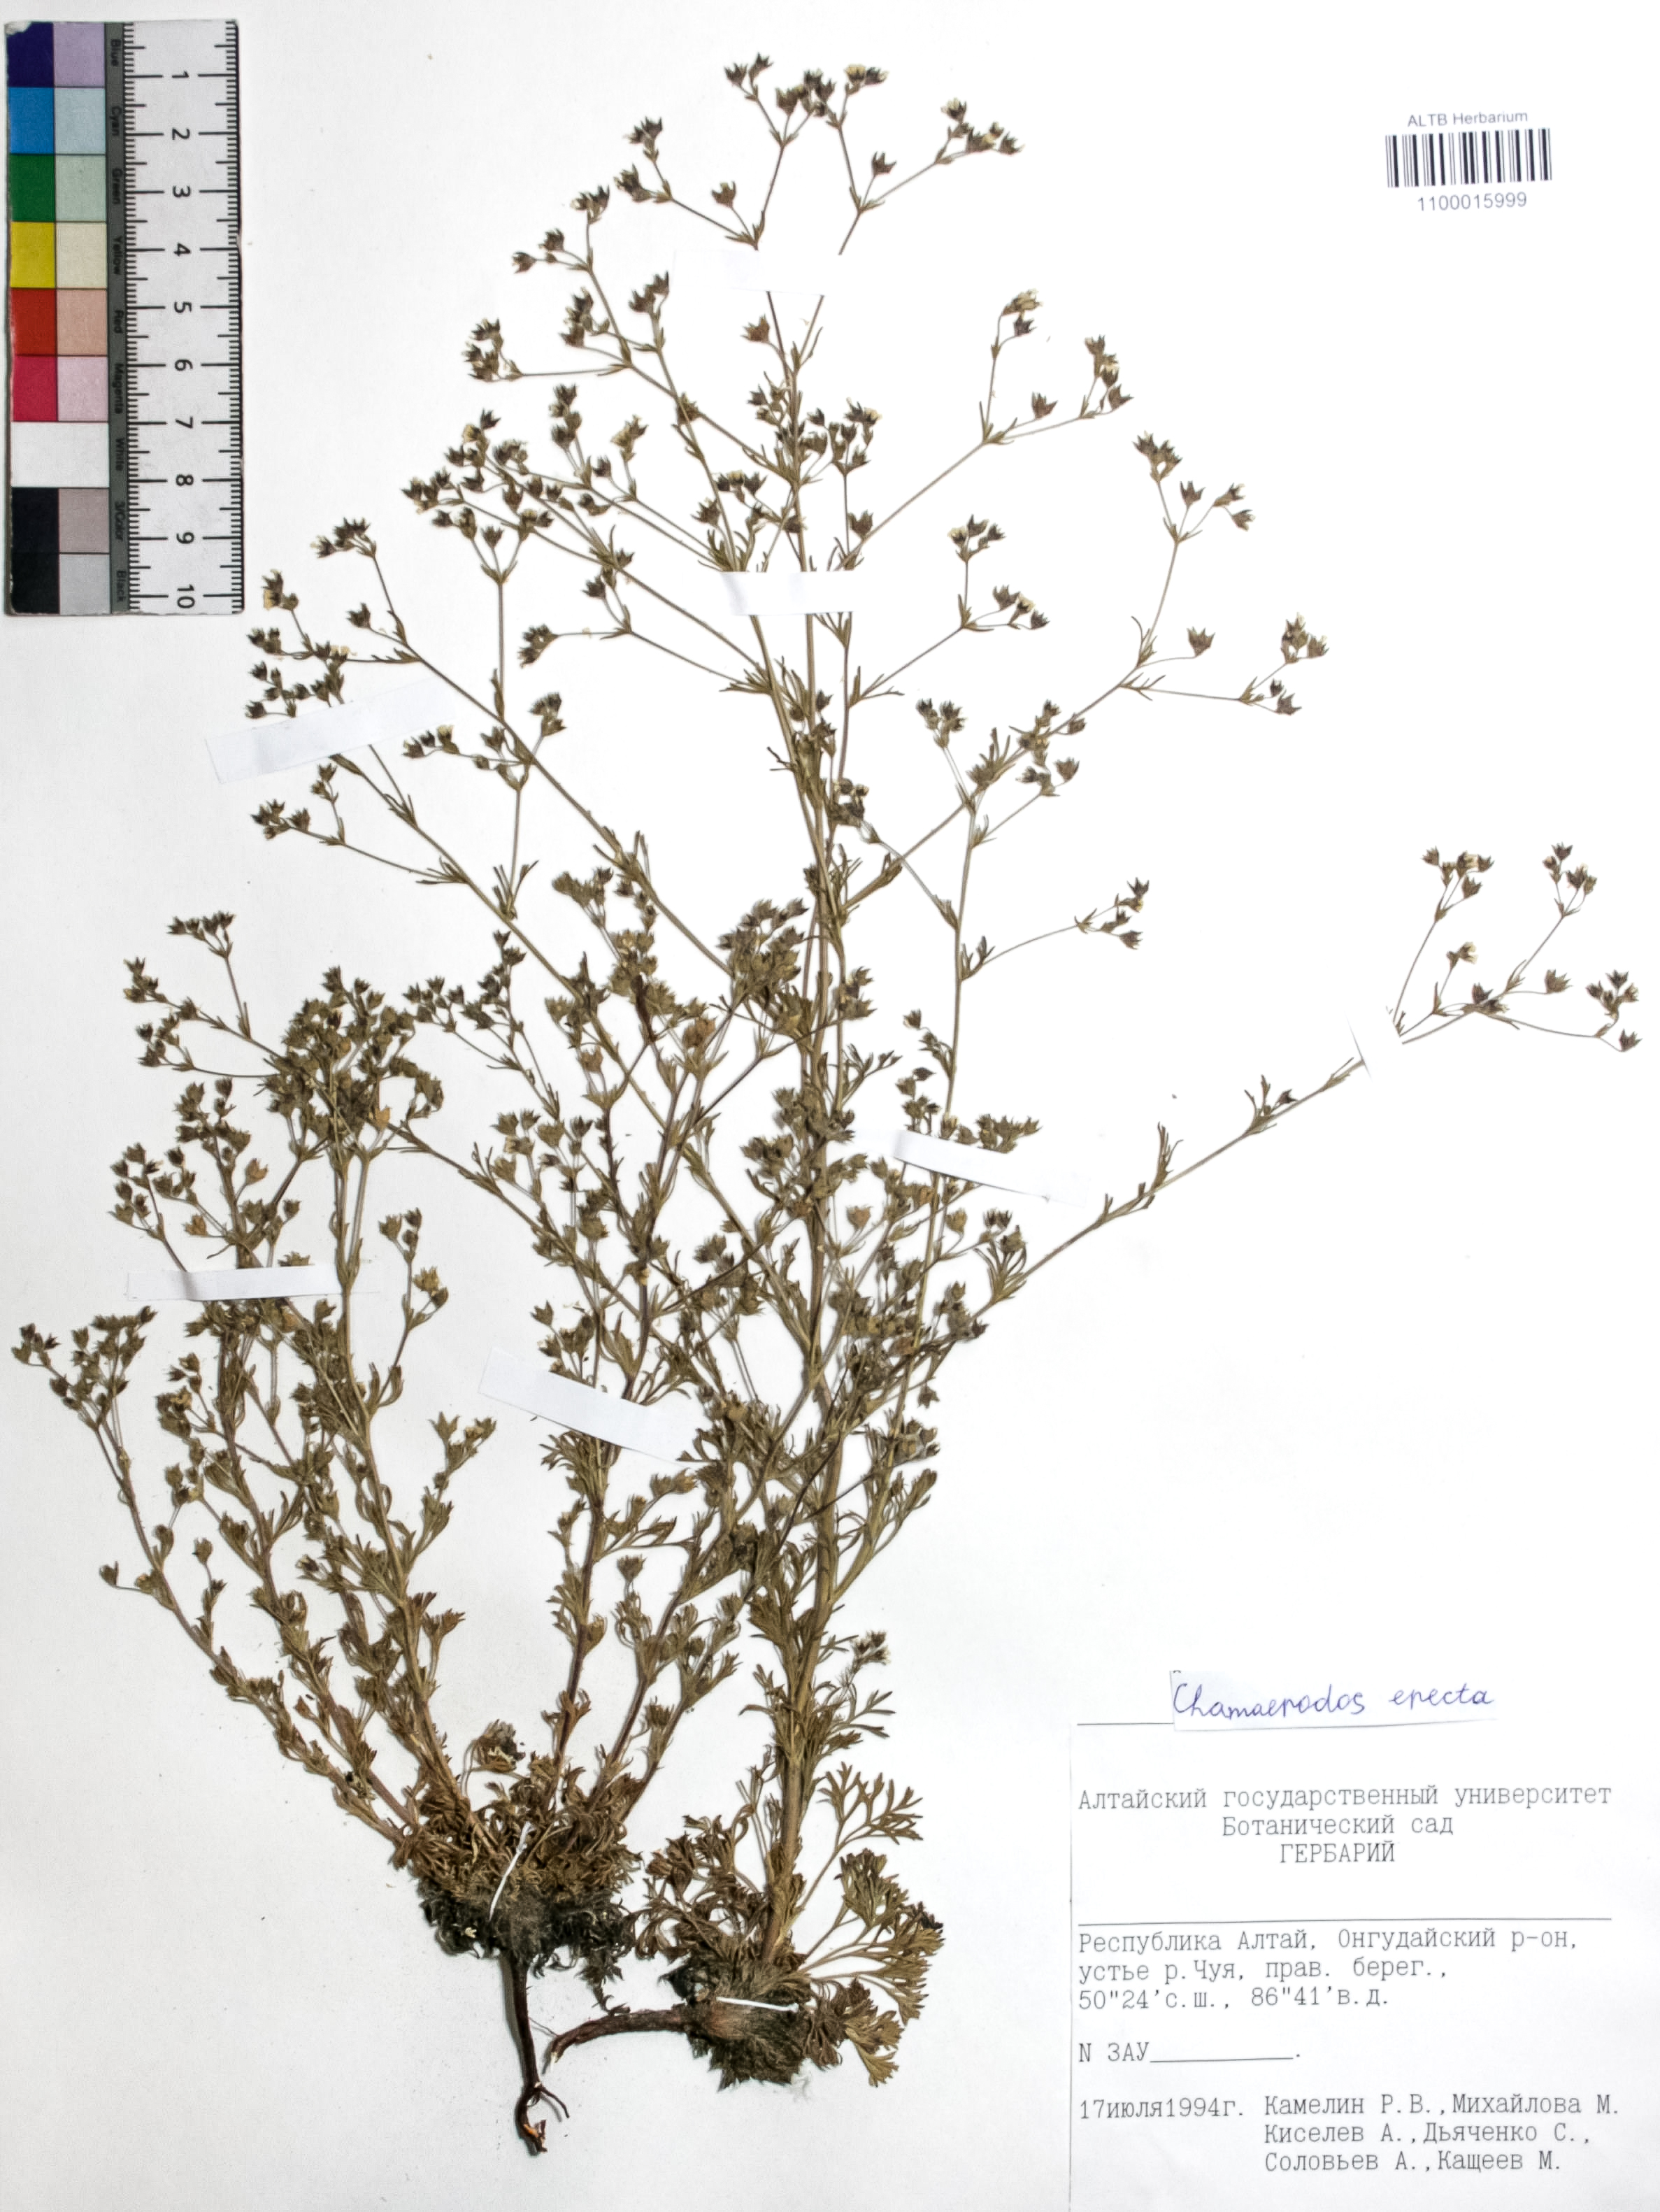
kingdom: Plantae
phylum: Tracheophyta
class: Magnoliopsida
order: Rosales
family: Rosaceae
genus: Chamaerhodos
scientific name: Chamaerhodos erecta
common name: American chamaerhodos
